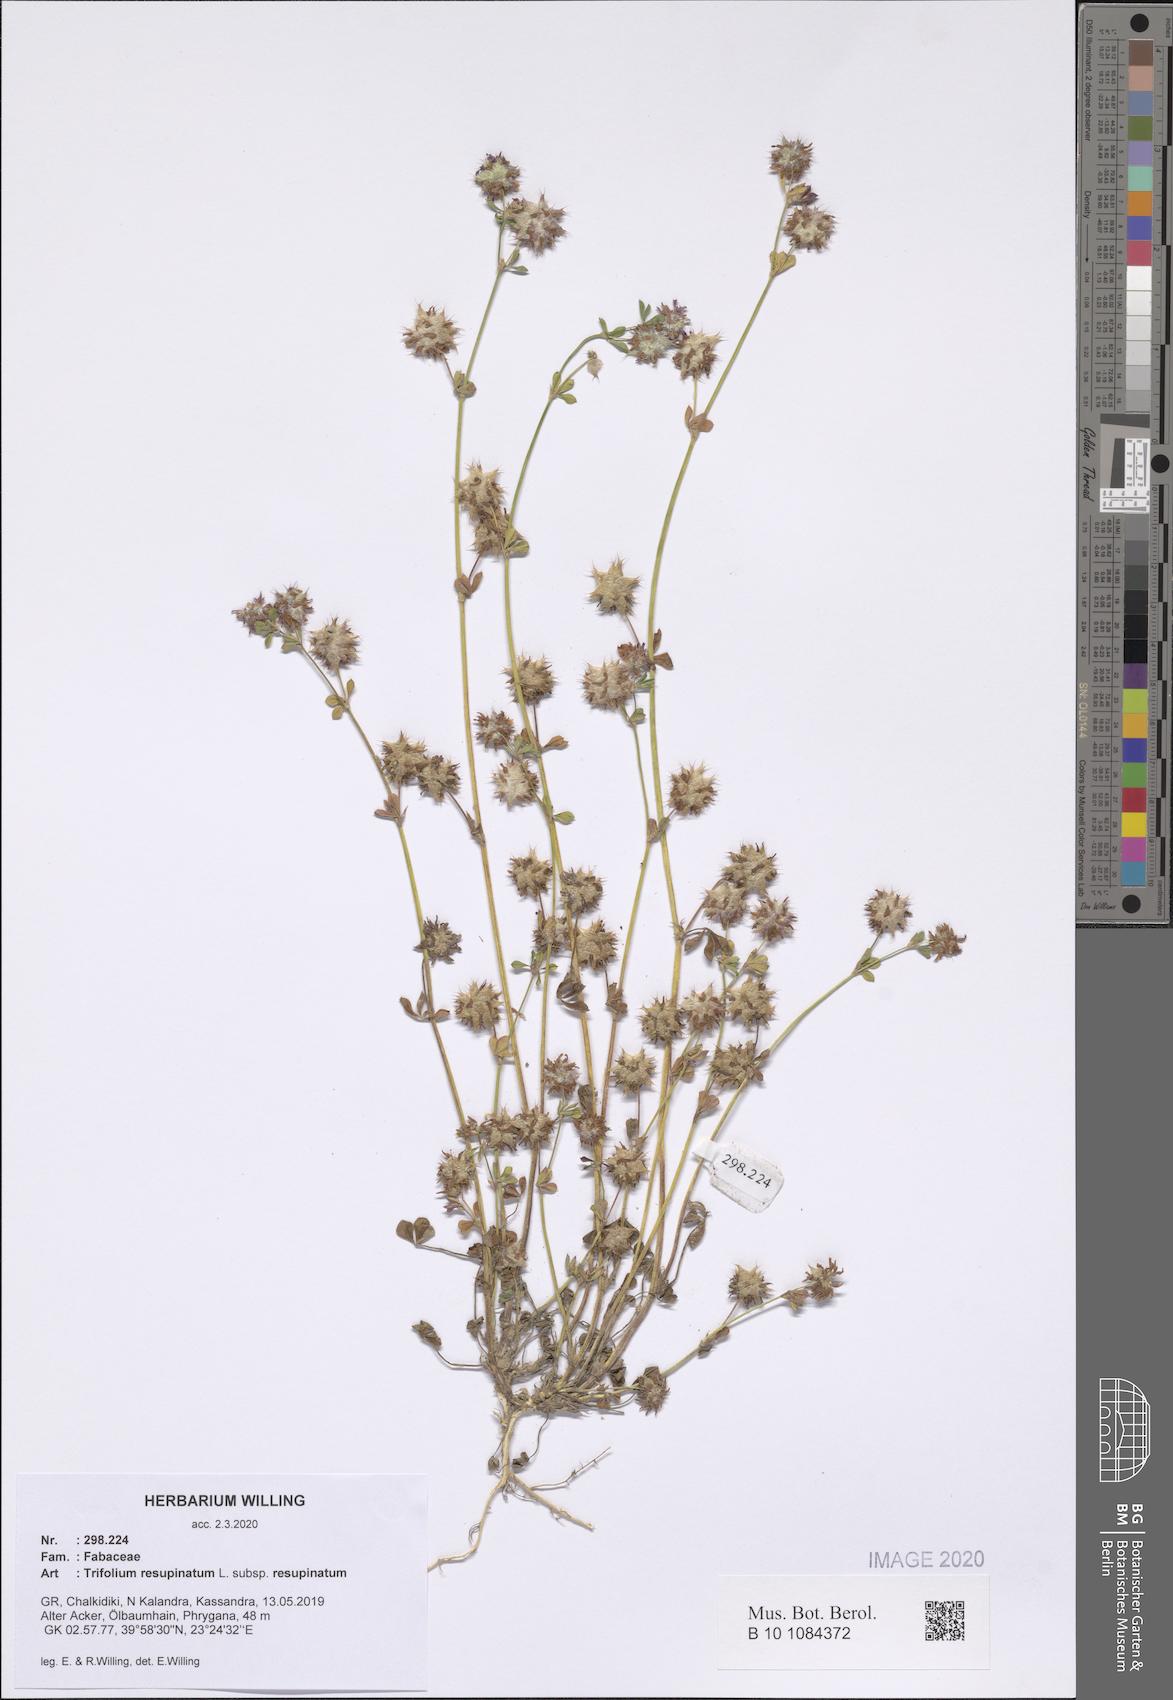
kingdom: Plantae
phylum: Tracheophyta
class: Magnoliopsida
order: Fabales
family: Fabaceae
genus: Trifolium
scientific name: Trifolium resupinatum
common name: Reversed clover
